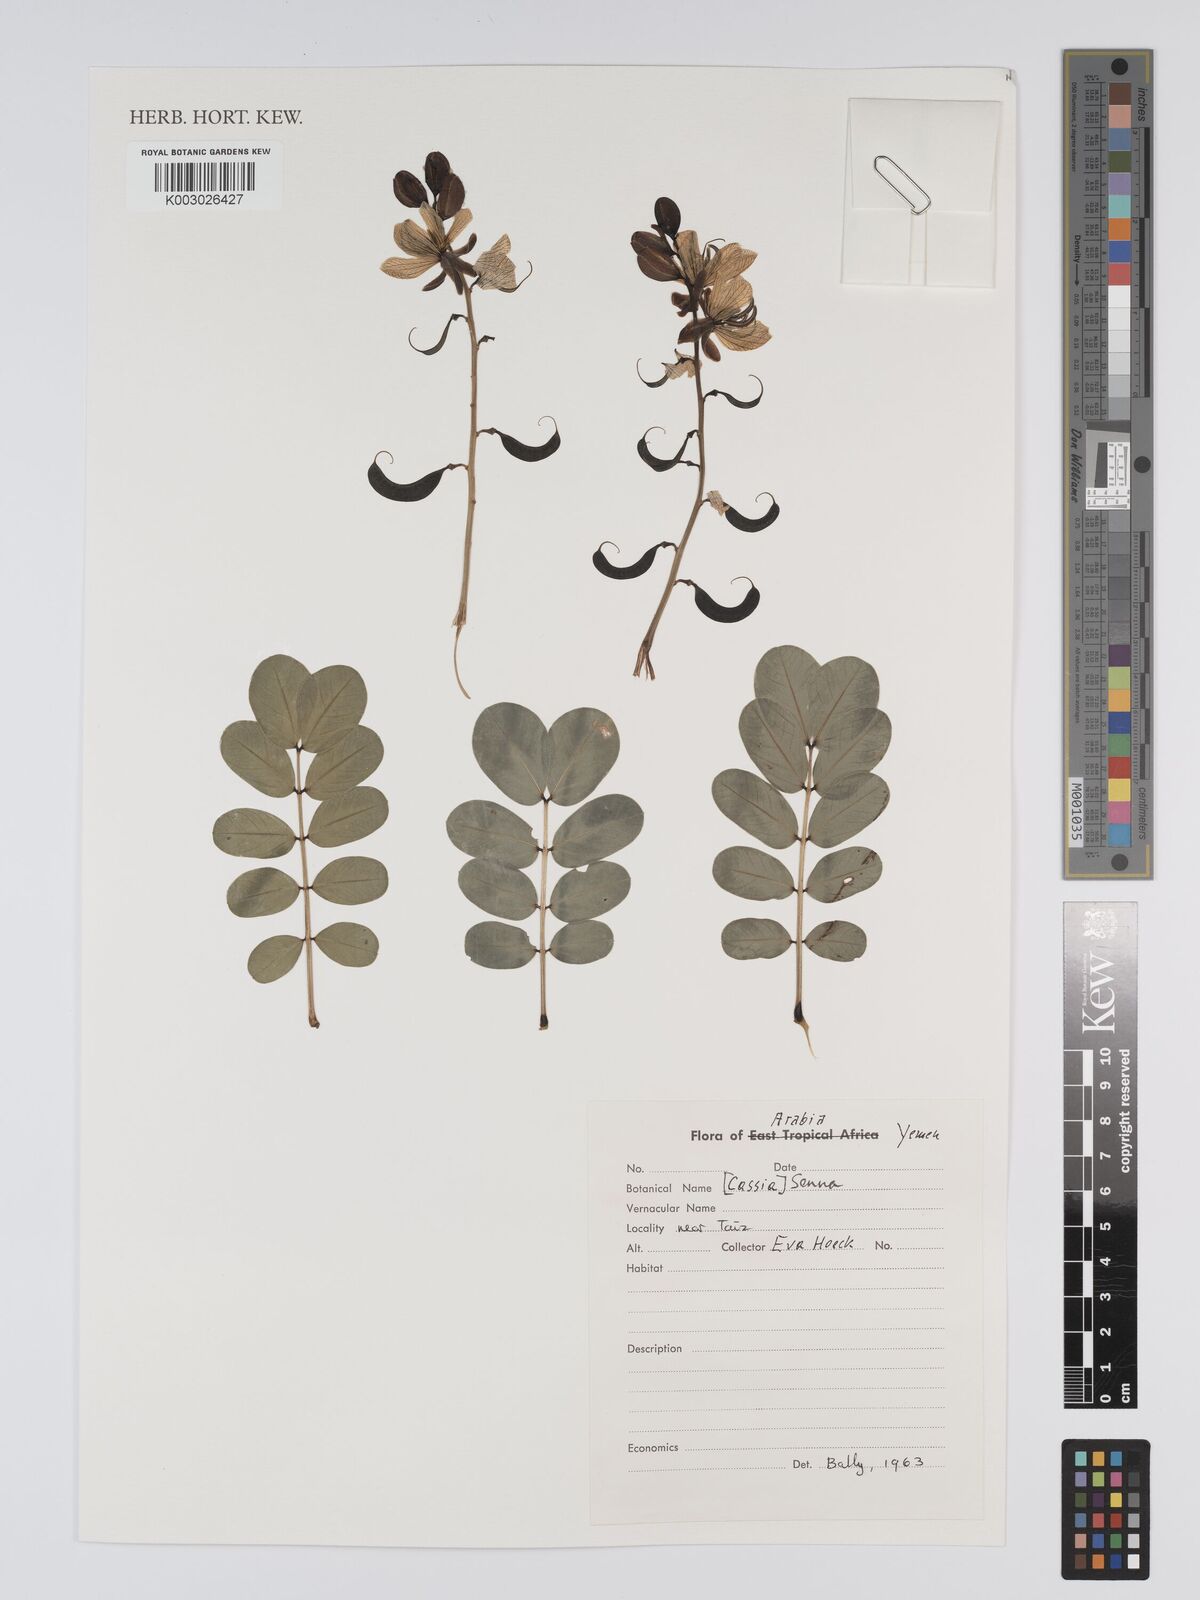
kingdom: Plantae
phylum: Tracheophyta
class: Magnoliopsida
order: Fabales
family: Fabaceae
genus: Cassia
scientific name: Cassia
